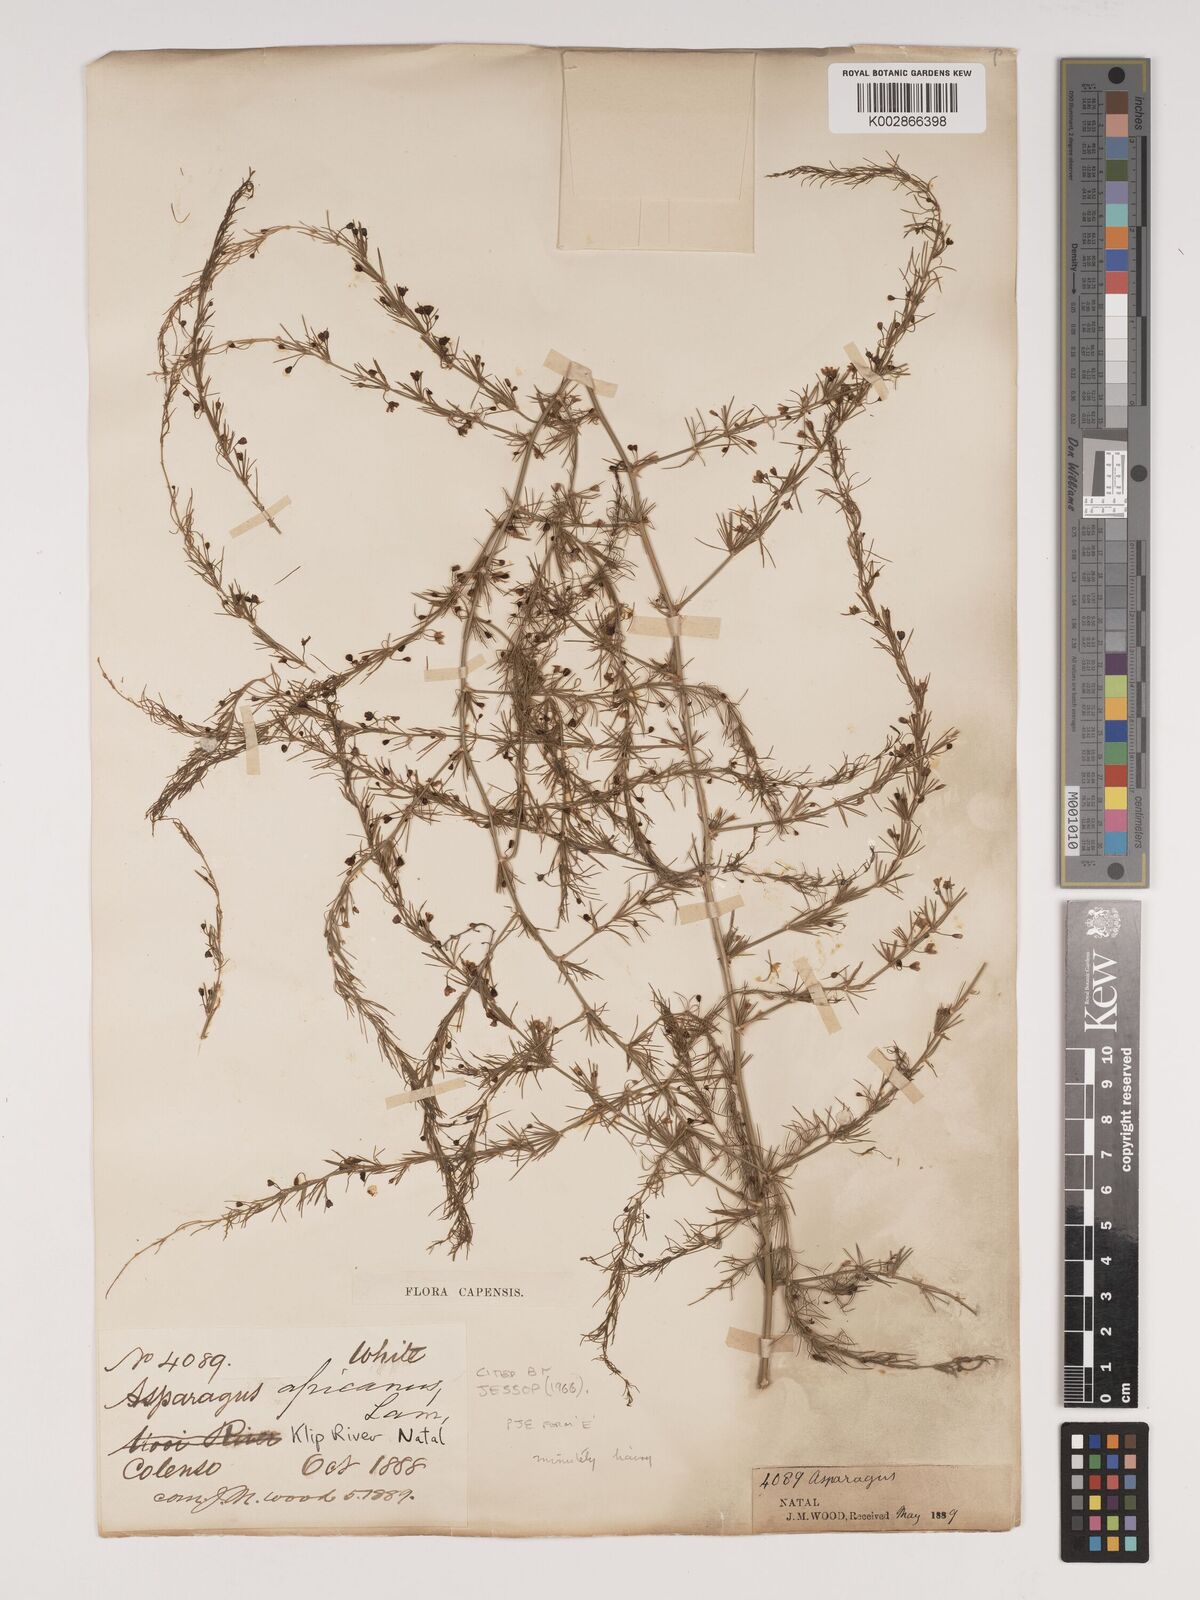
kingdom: Plantae
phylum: Tracheophyta
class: Liliopsida
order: Asparagales
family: Asparagaceae
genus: Asparagus
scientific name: Asparagus africanus
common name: Asparagus-fern
